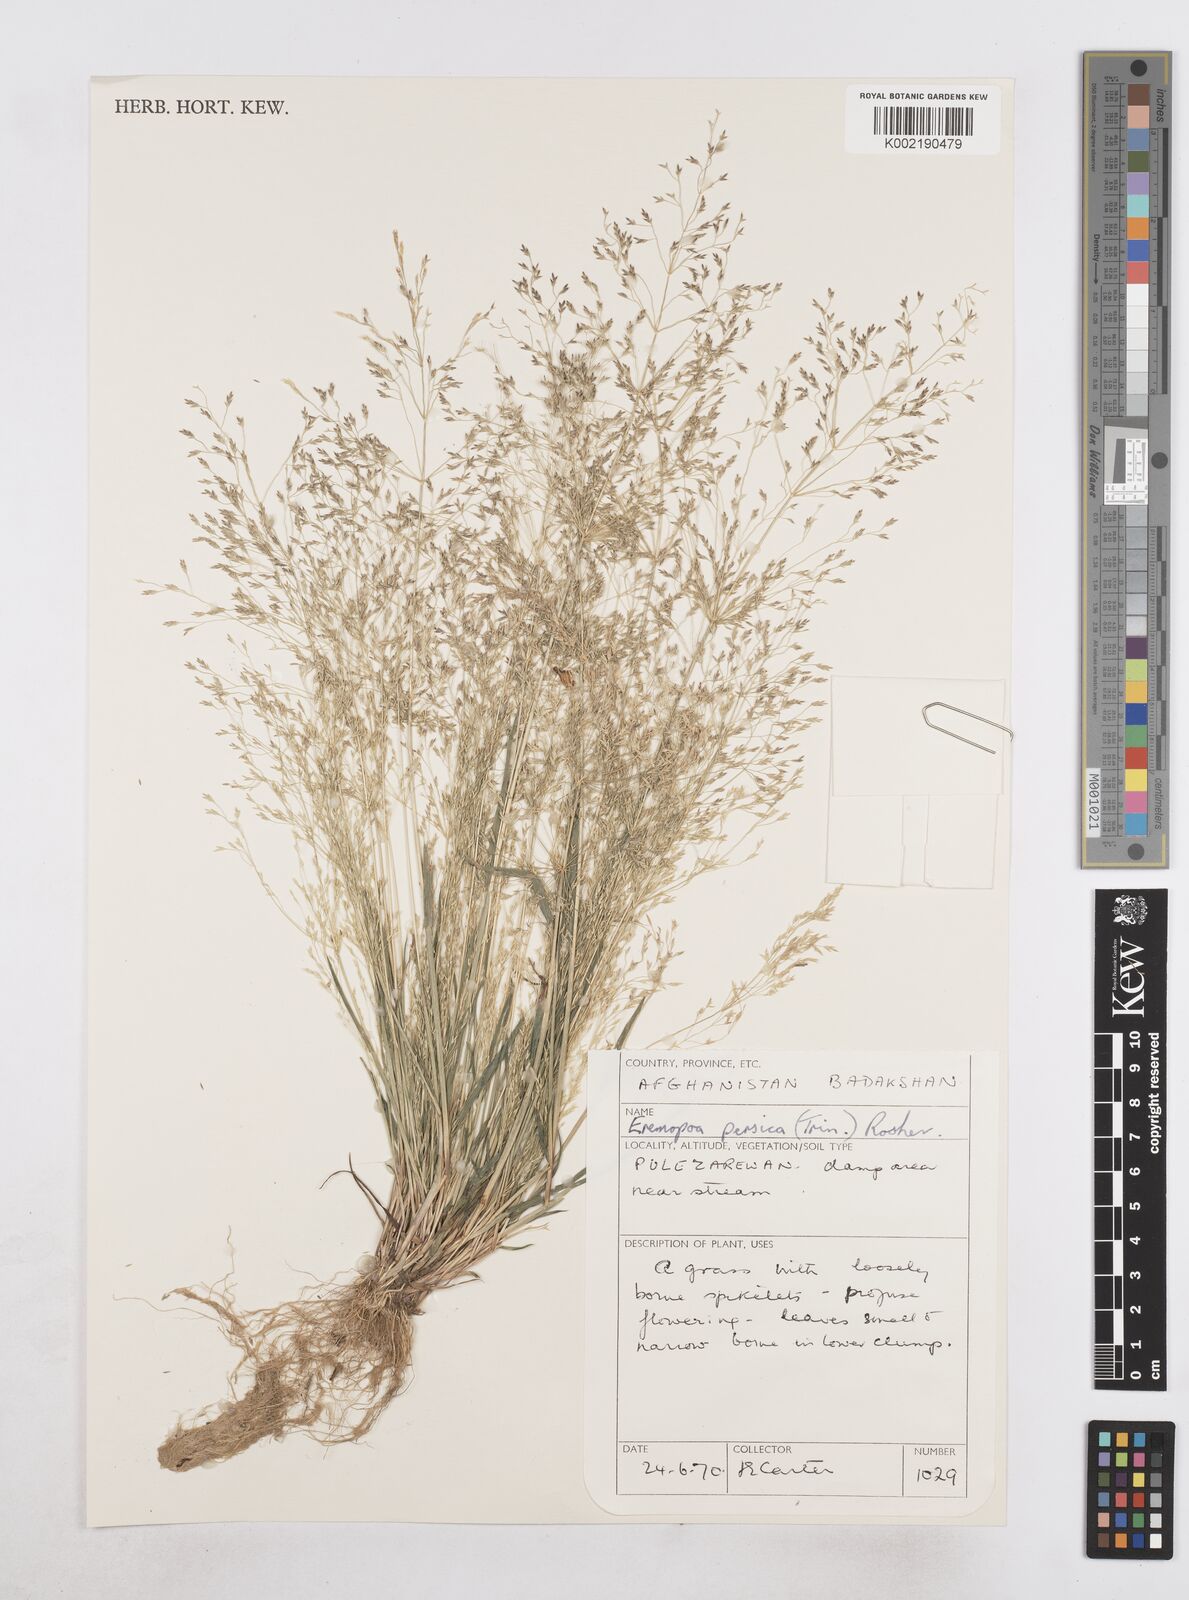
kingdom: Plantae
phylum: Tracheophyta
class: Liliopsida
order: Poales
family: Poaceae
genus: Poa
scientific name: Poa diaphora
